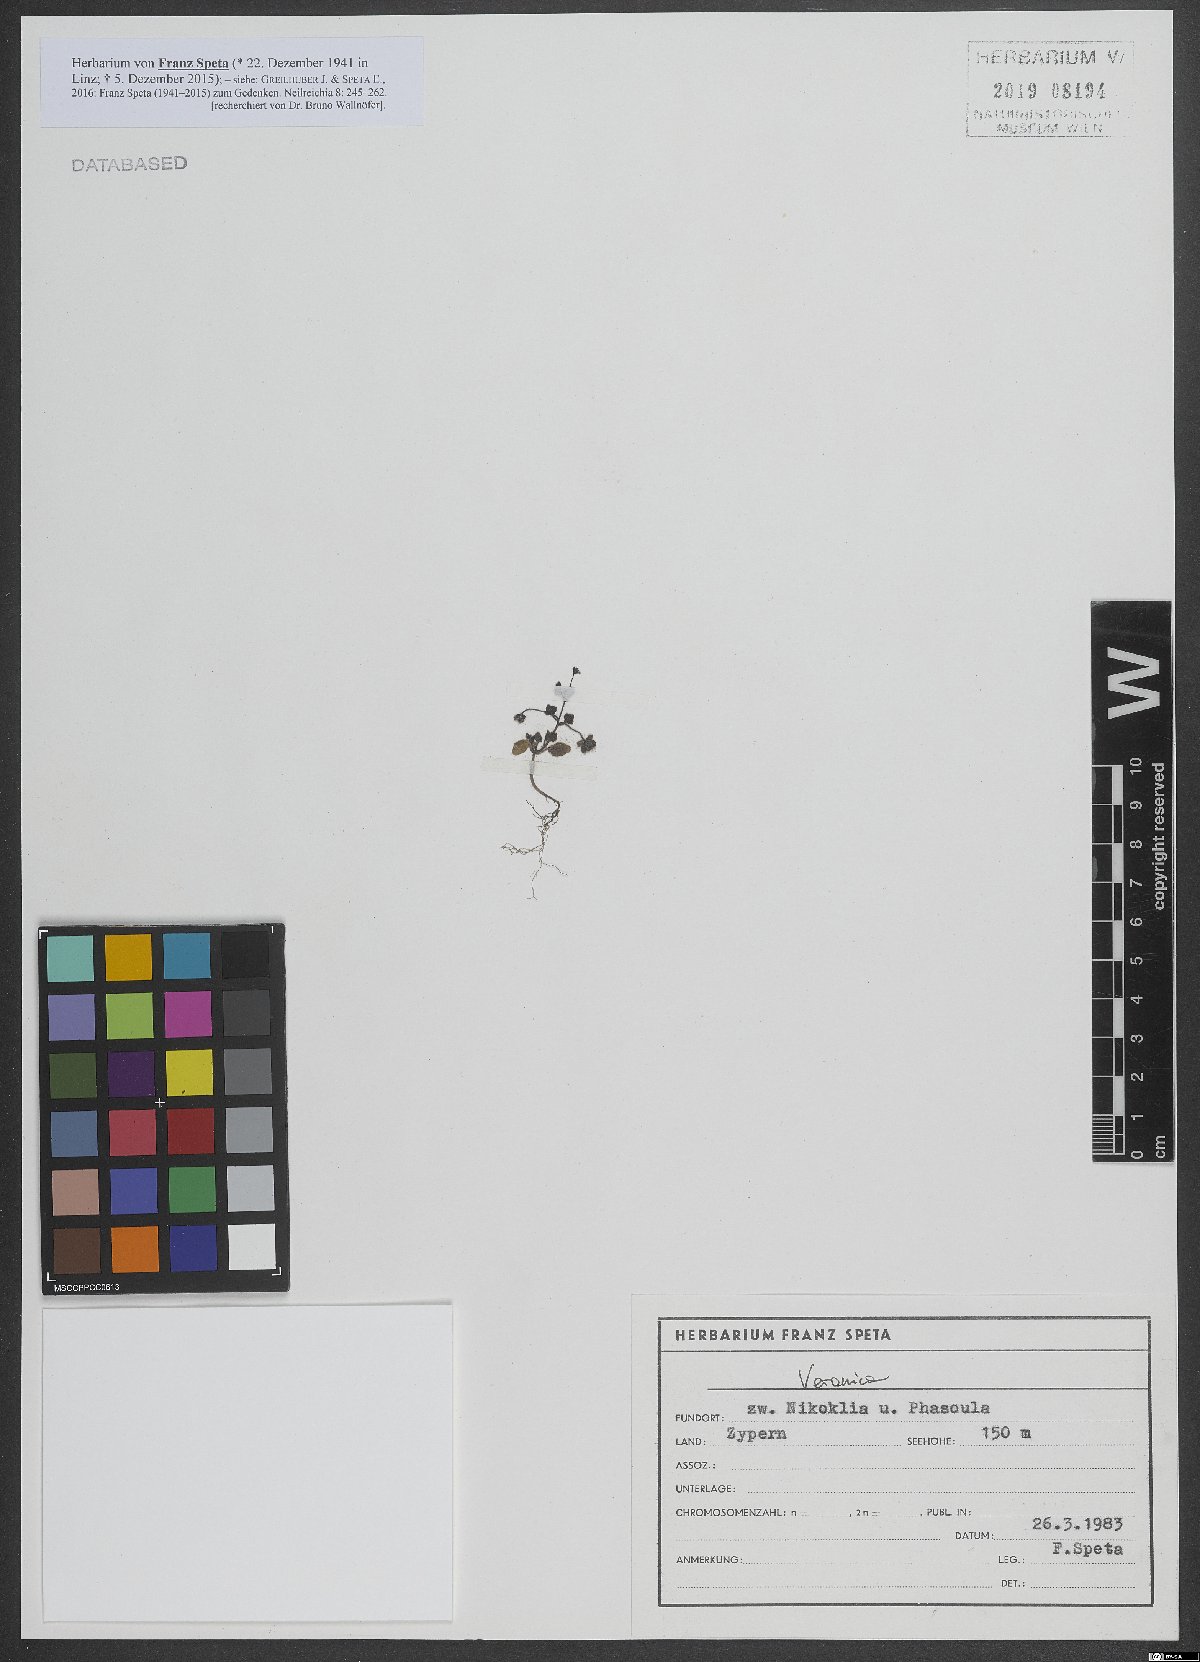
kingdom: Plantae
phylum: Tracheophyta
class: Magnoliopsida
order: Lamiales
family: Plantaginaceae
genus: Veronica
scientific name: Veronica
